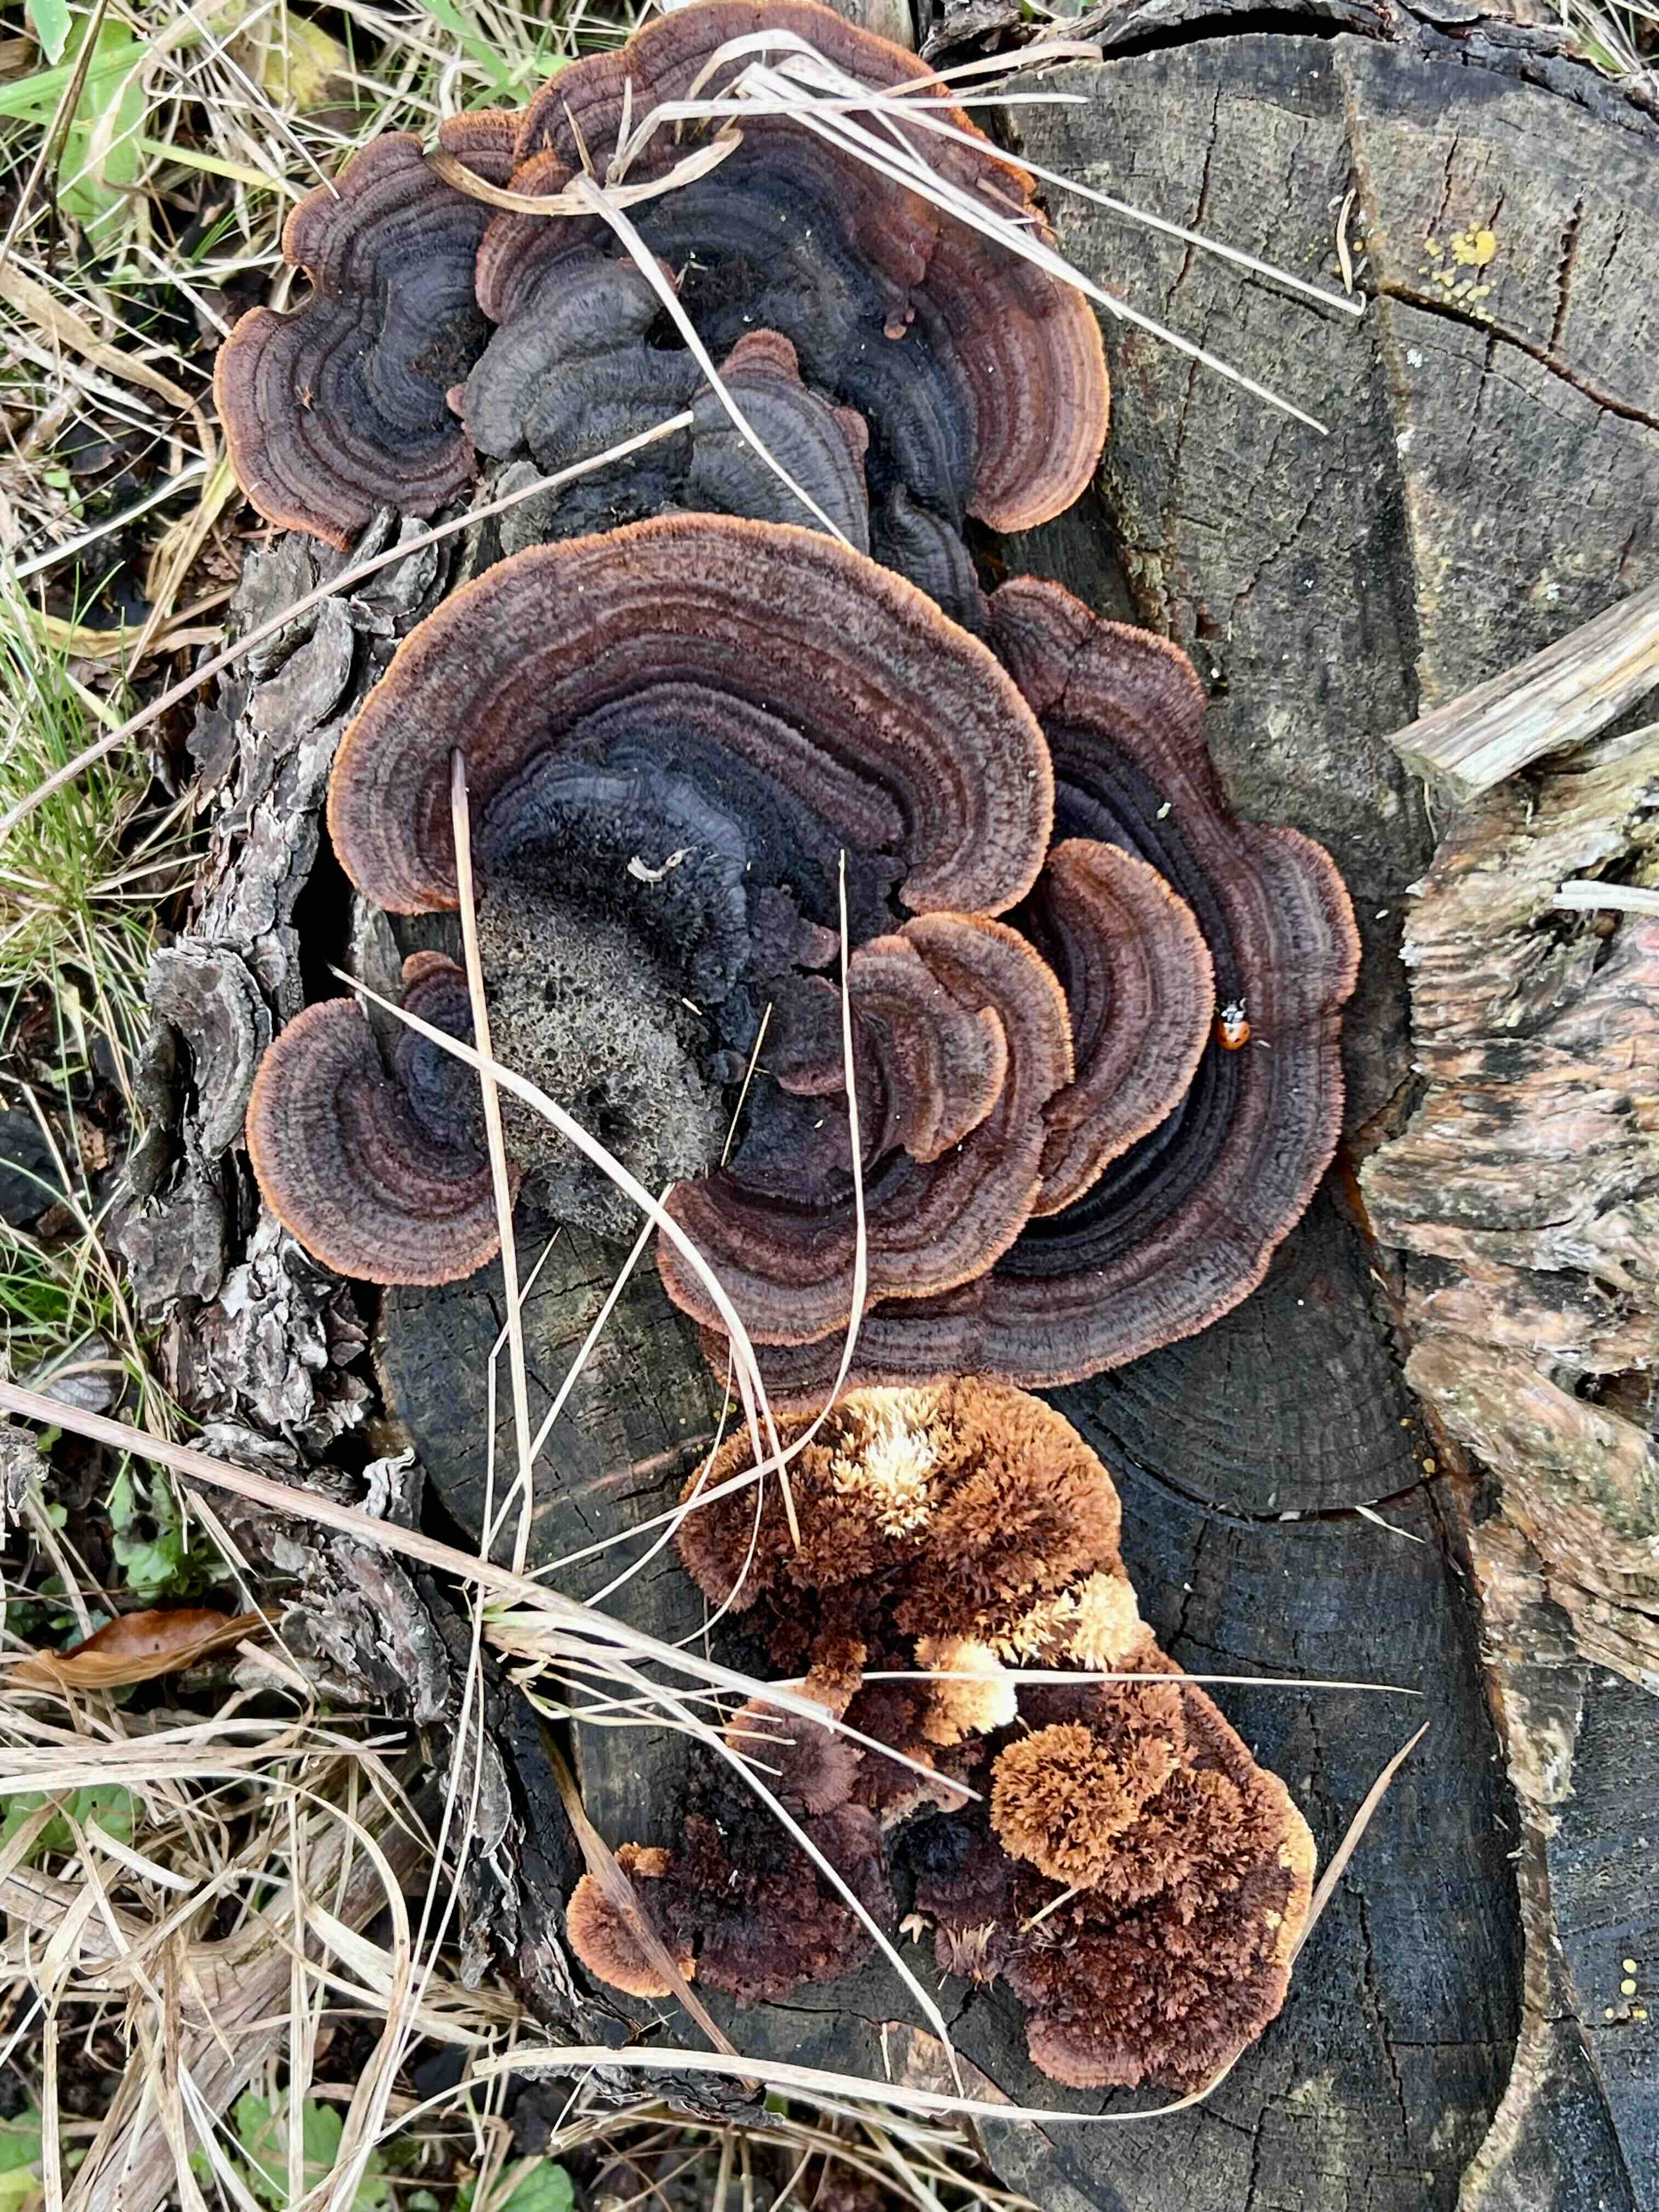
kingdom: Fungi
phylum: Basidiomycota
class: Agaricomycetes
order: Gloeophyllales
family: Gloeophyllaceae
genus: Gloeophyllum
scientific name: Gloeophyllum sepiarium
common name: fyrre-korkhat
